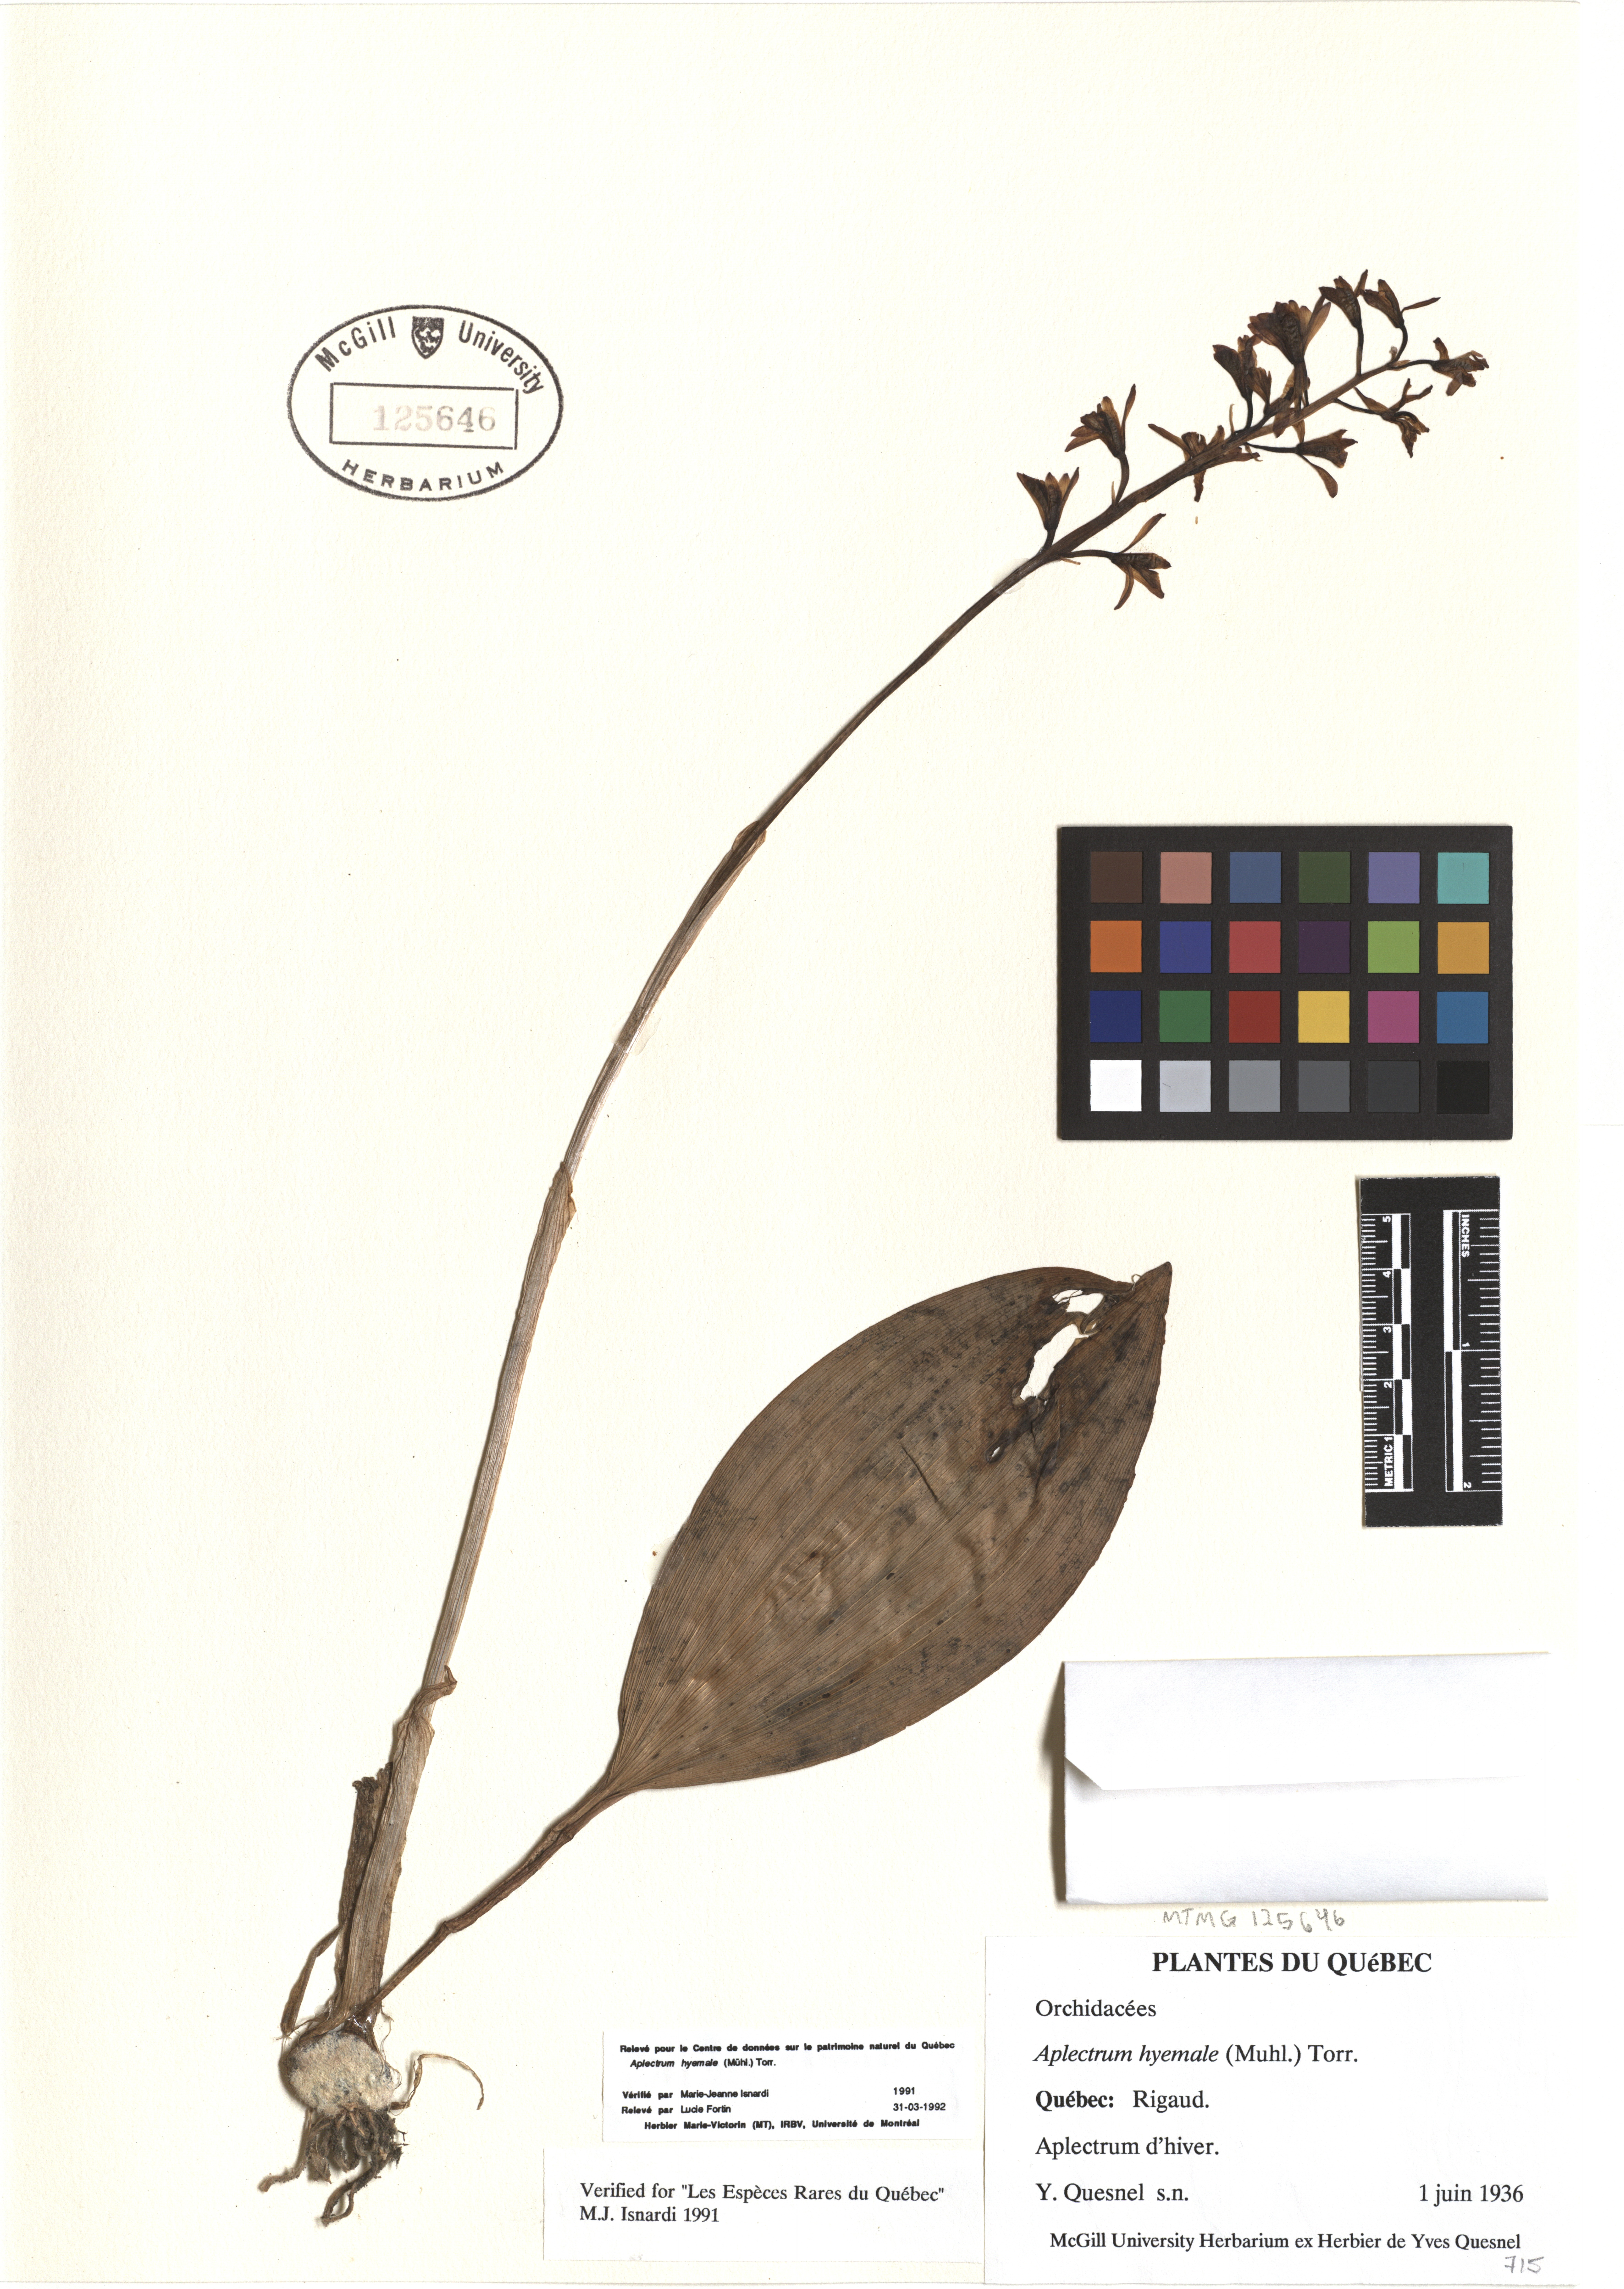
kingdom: Plantae
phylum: Tracheophyta
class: Liliopsida
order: Asparagales
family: Orchidaceae
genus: Aplectrum
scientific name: Aplectrum hyemale
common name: Adam-and-eve
